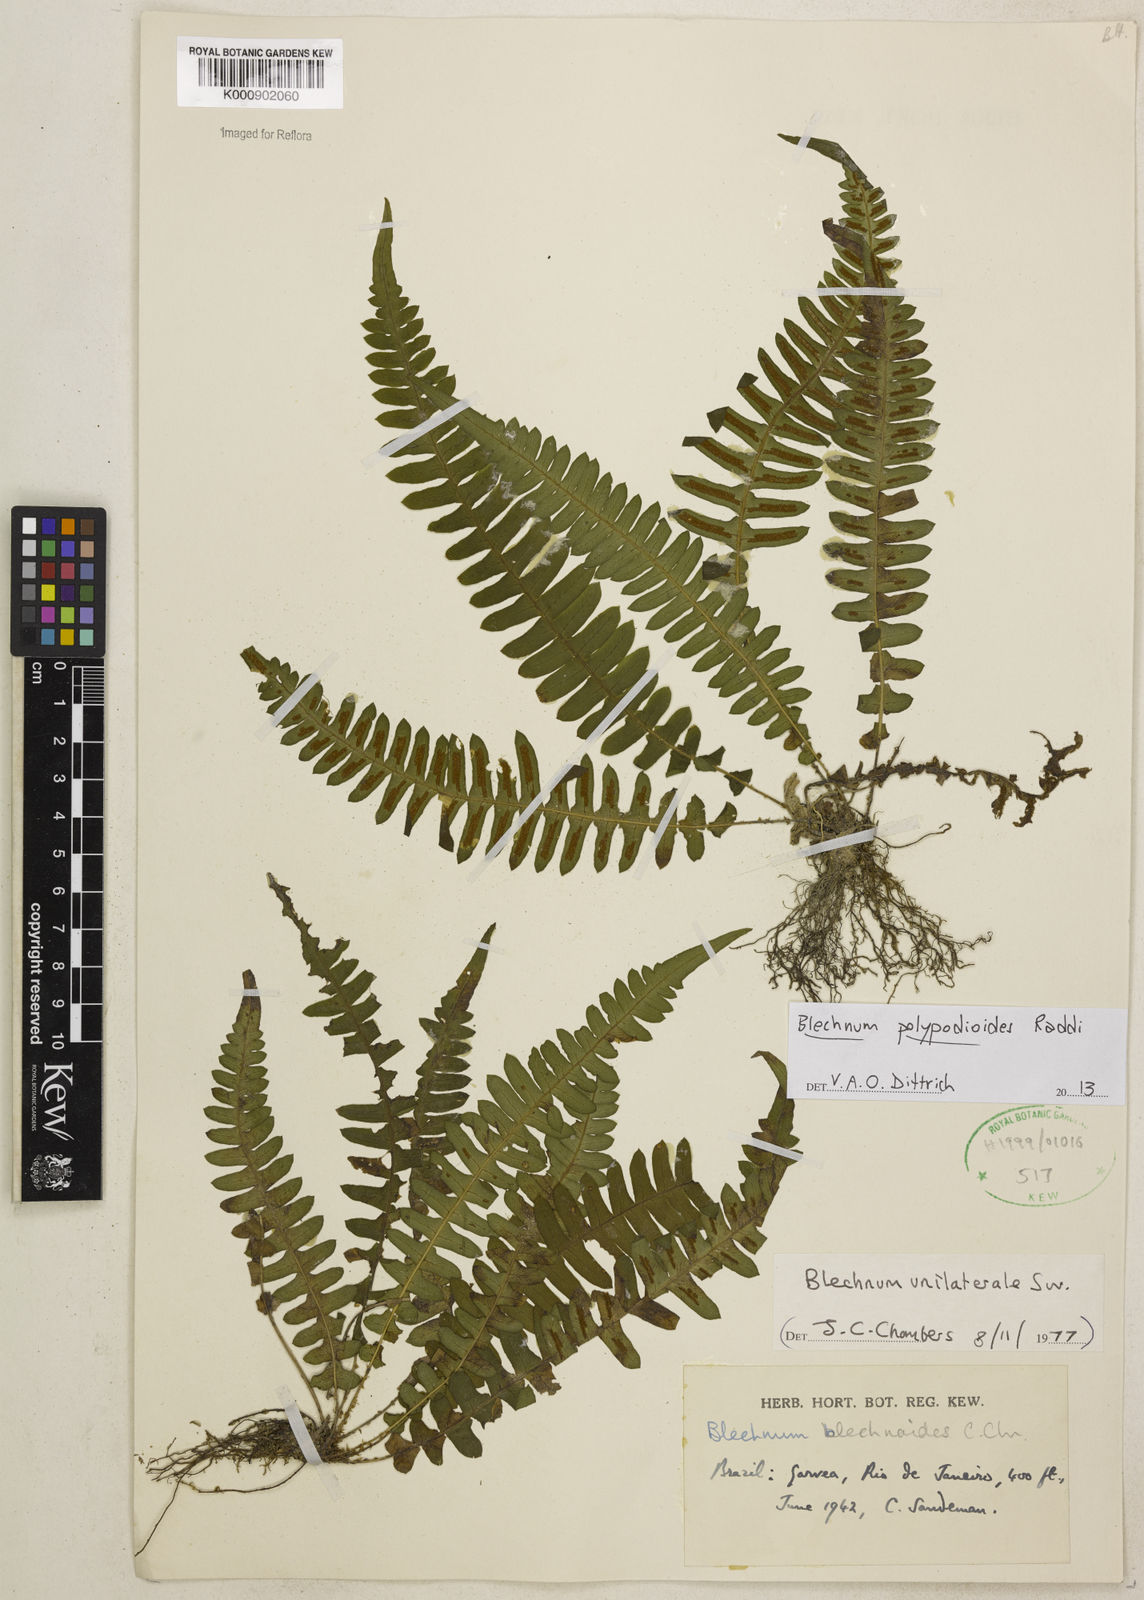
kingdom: Plantae
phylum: Tracheophyta
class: Polypodiopsida
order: Polypodiales
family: Blechnaceae
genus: Blechnum
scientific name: Blechnum polypodioides
